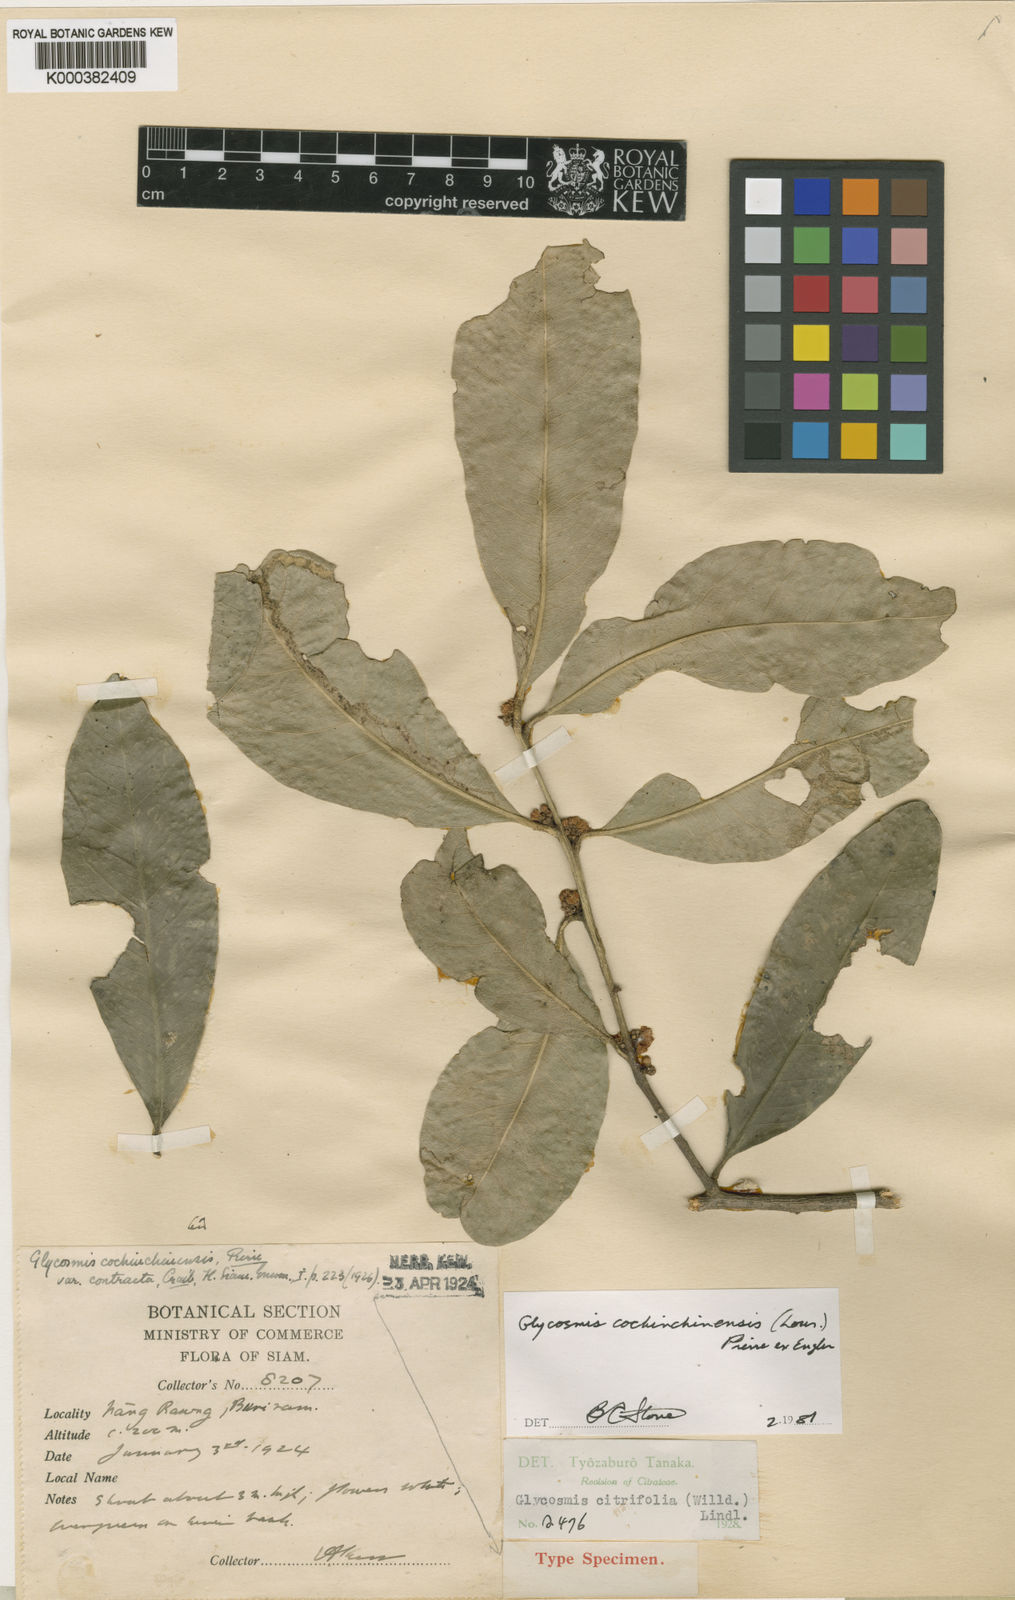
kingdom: Plantae
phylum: Tracheophyta
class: Magnoliopsida
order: Sapindales
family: Rutaceae
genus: Glycosmis
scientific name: Glycosmis
